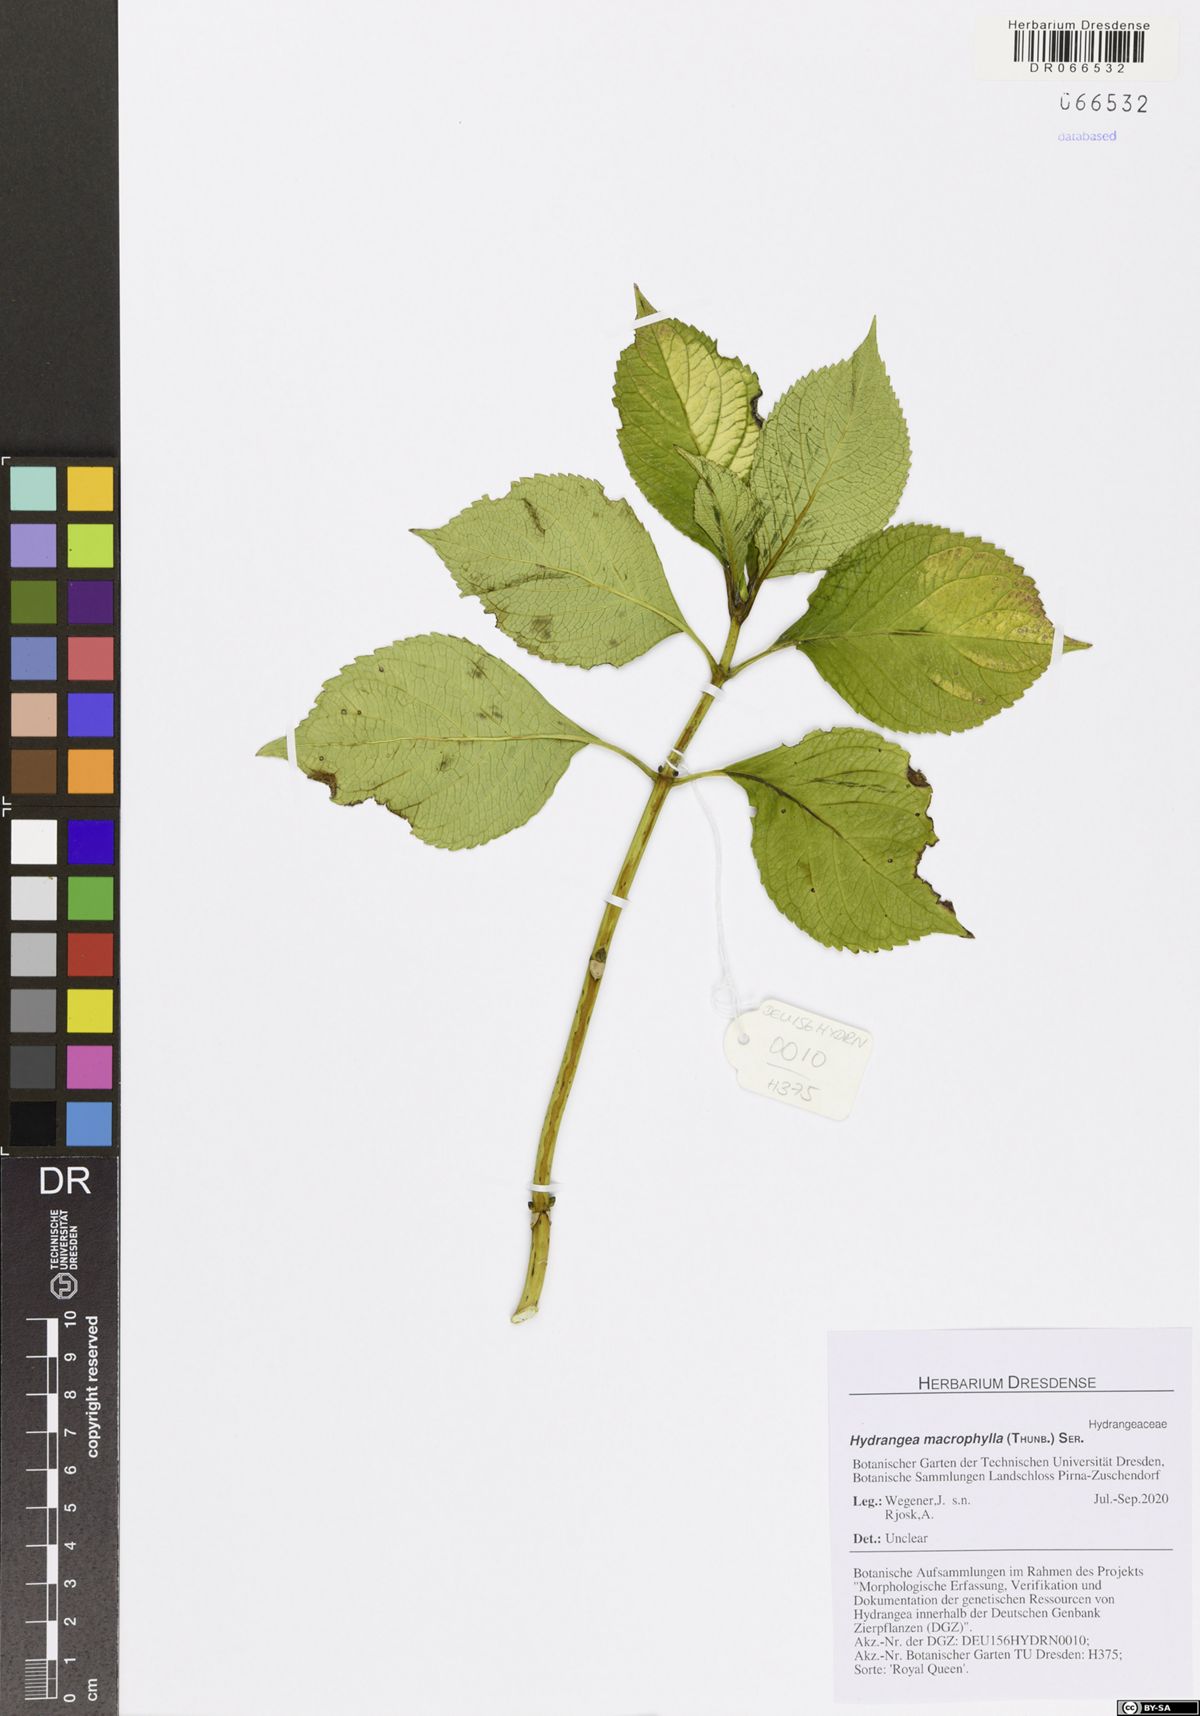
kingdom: Plantae
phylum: Tracheophyta
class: Magnoliopsida
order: Cornales
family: Hydrangeaceae
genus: Hydrangea
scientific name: Hydrangea macrophylla
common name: Hydrangea
